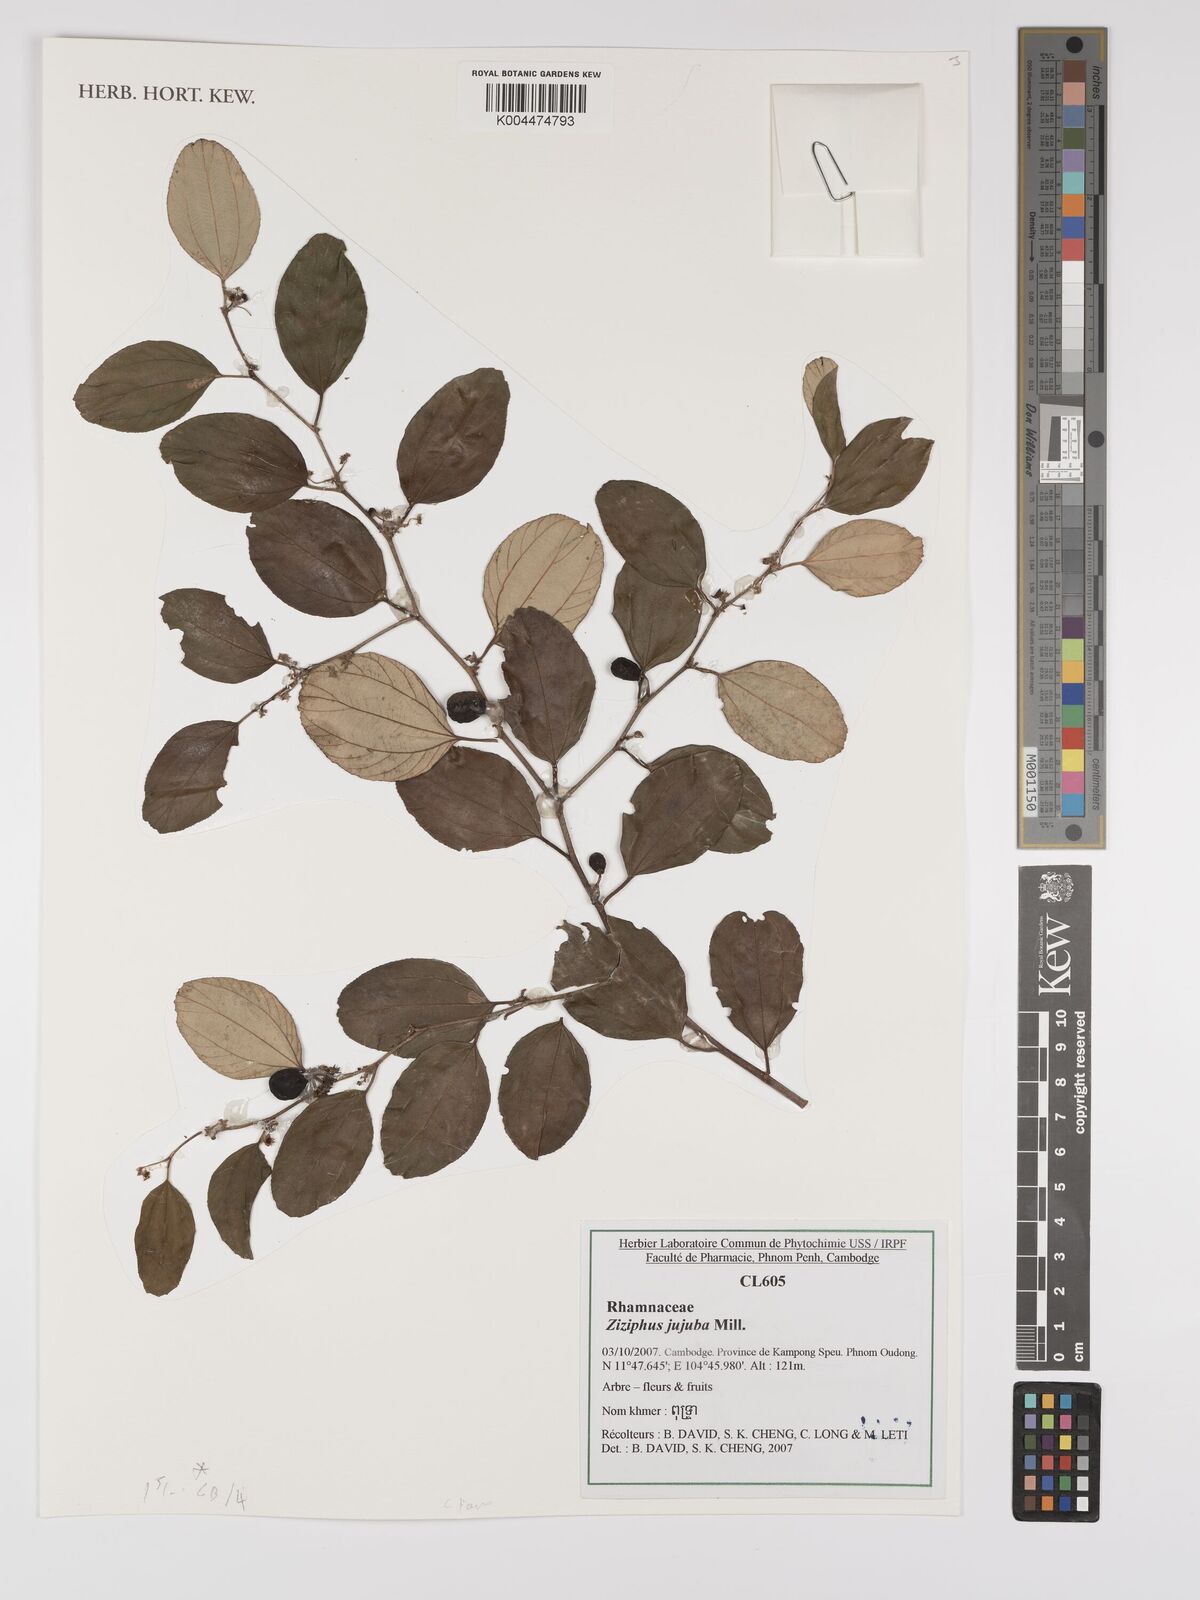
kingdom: Plantae
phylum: Tracheophyta
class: Magnoliopsida
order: Rosales
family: Rhamnaceae
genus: Ziziphus
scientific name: Ziziphus jujuba
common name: Jujube red date
